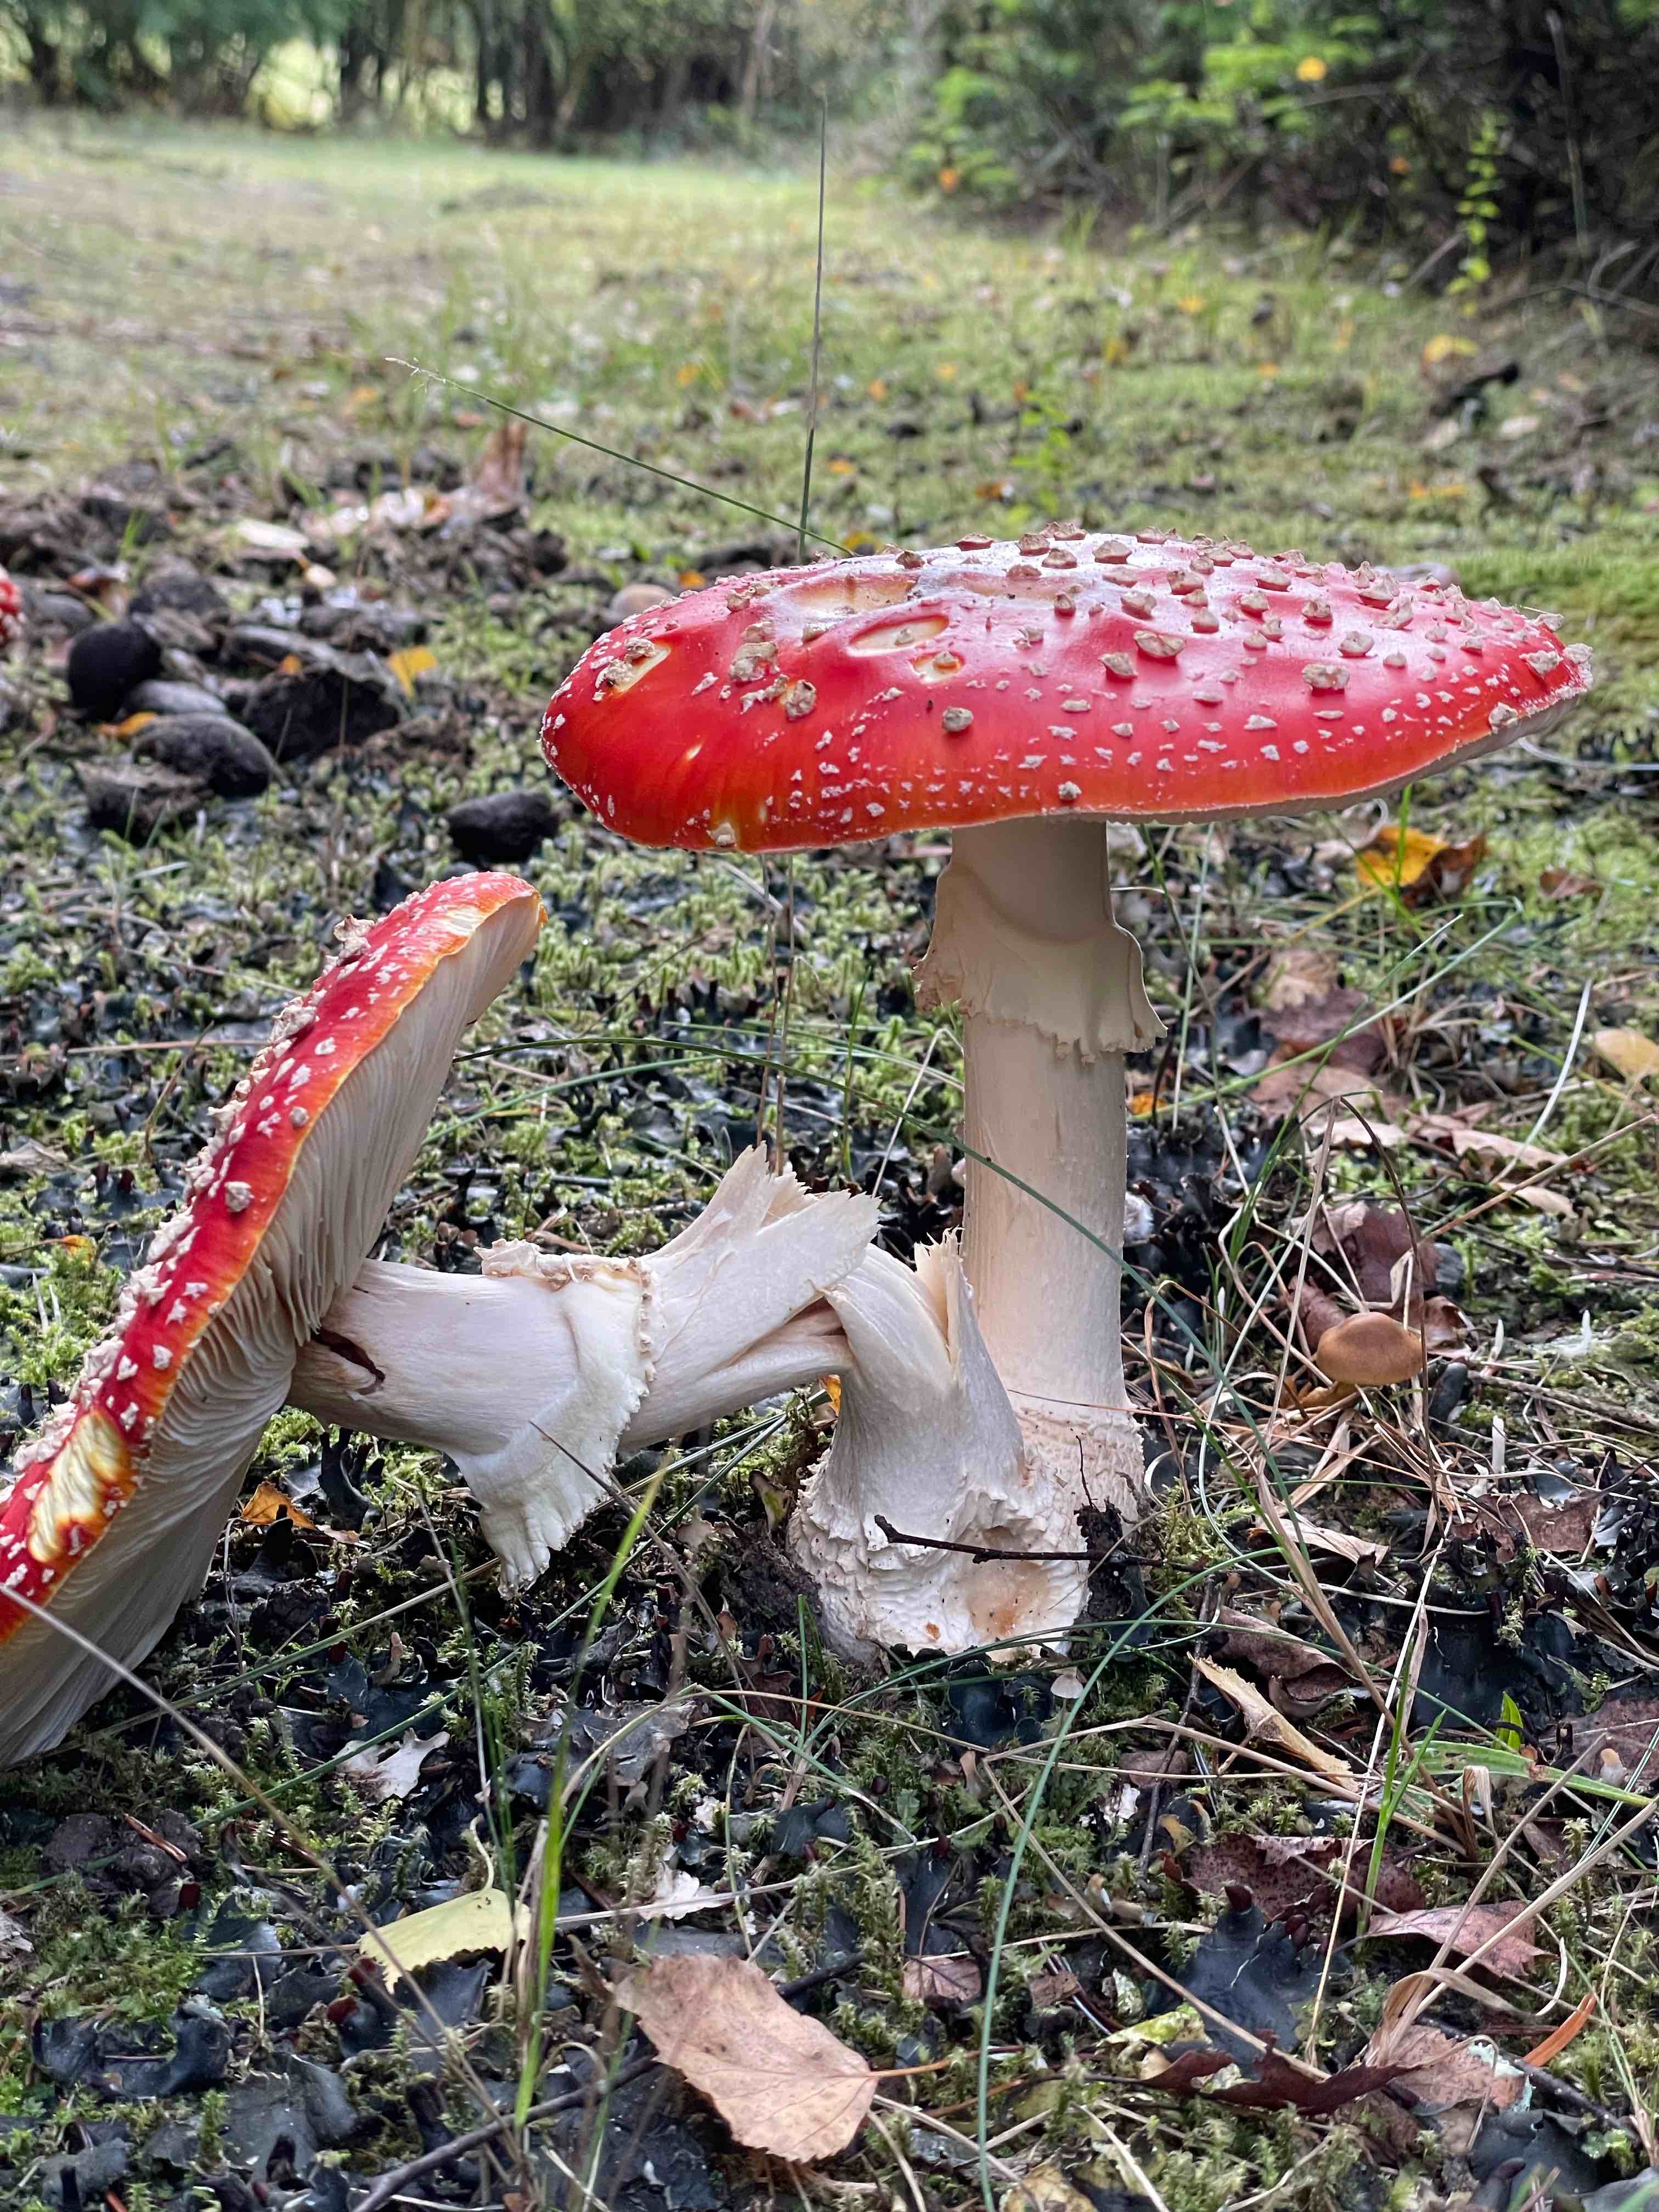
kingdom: Fungi
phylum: Basidiomycota
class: Agaricomycetes
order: Agaricales
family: Amanitaceae
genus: Amanita
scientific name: Amanita muscaria
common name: rød fluesvamp
